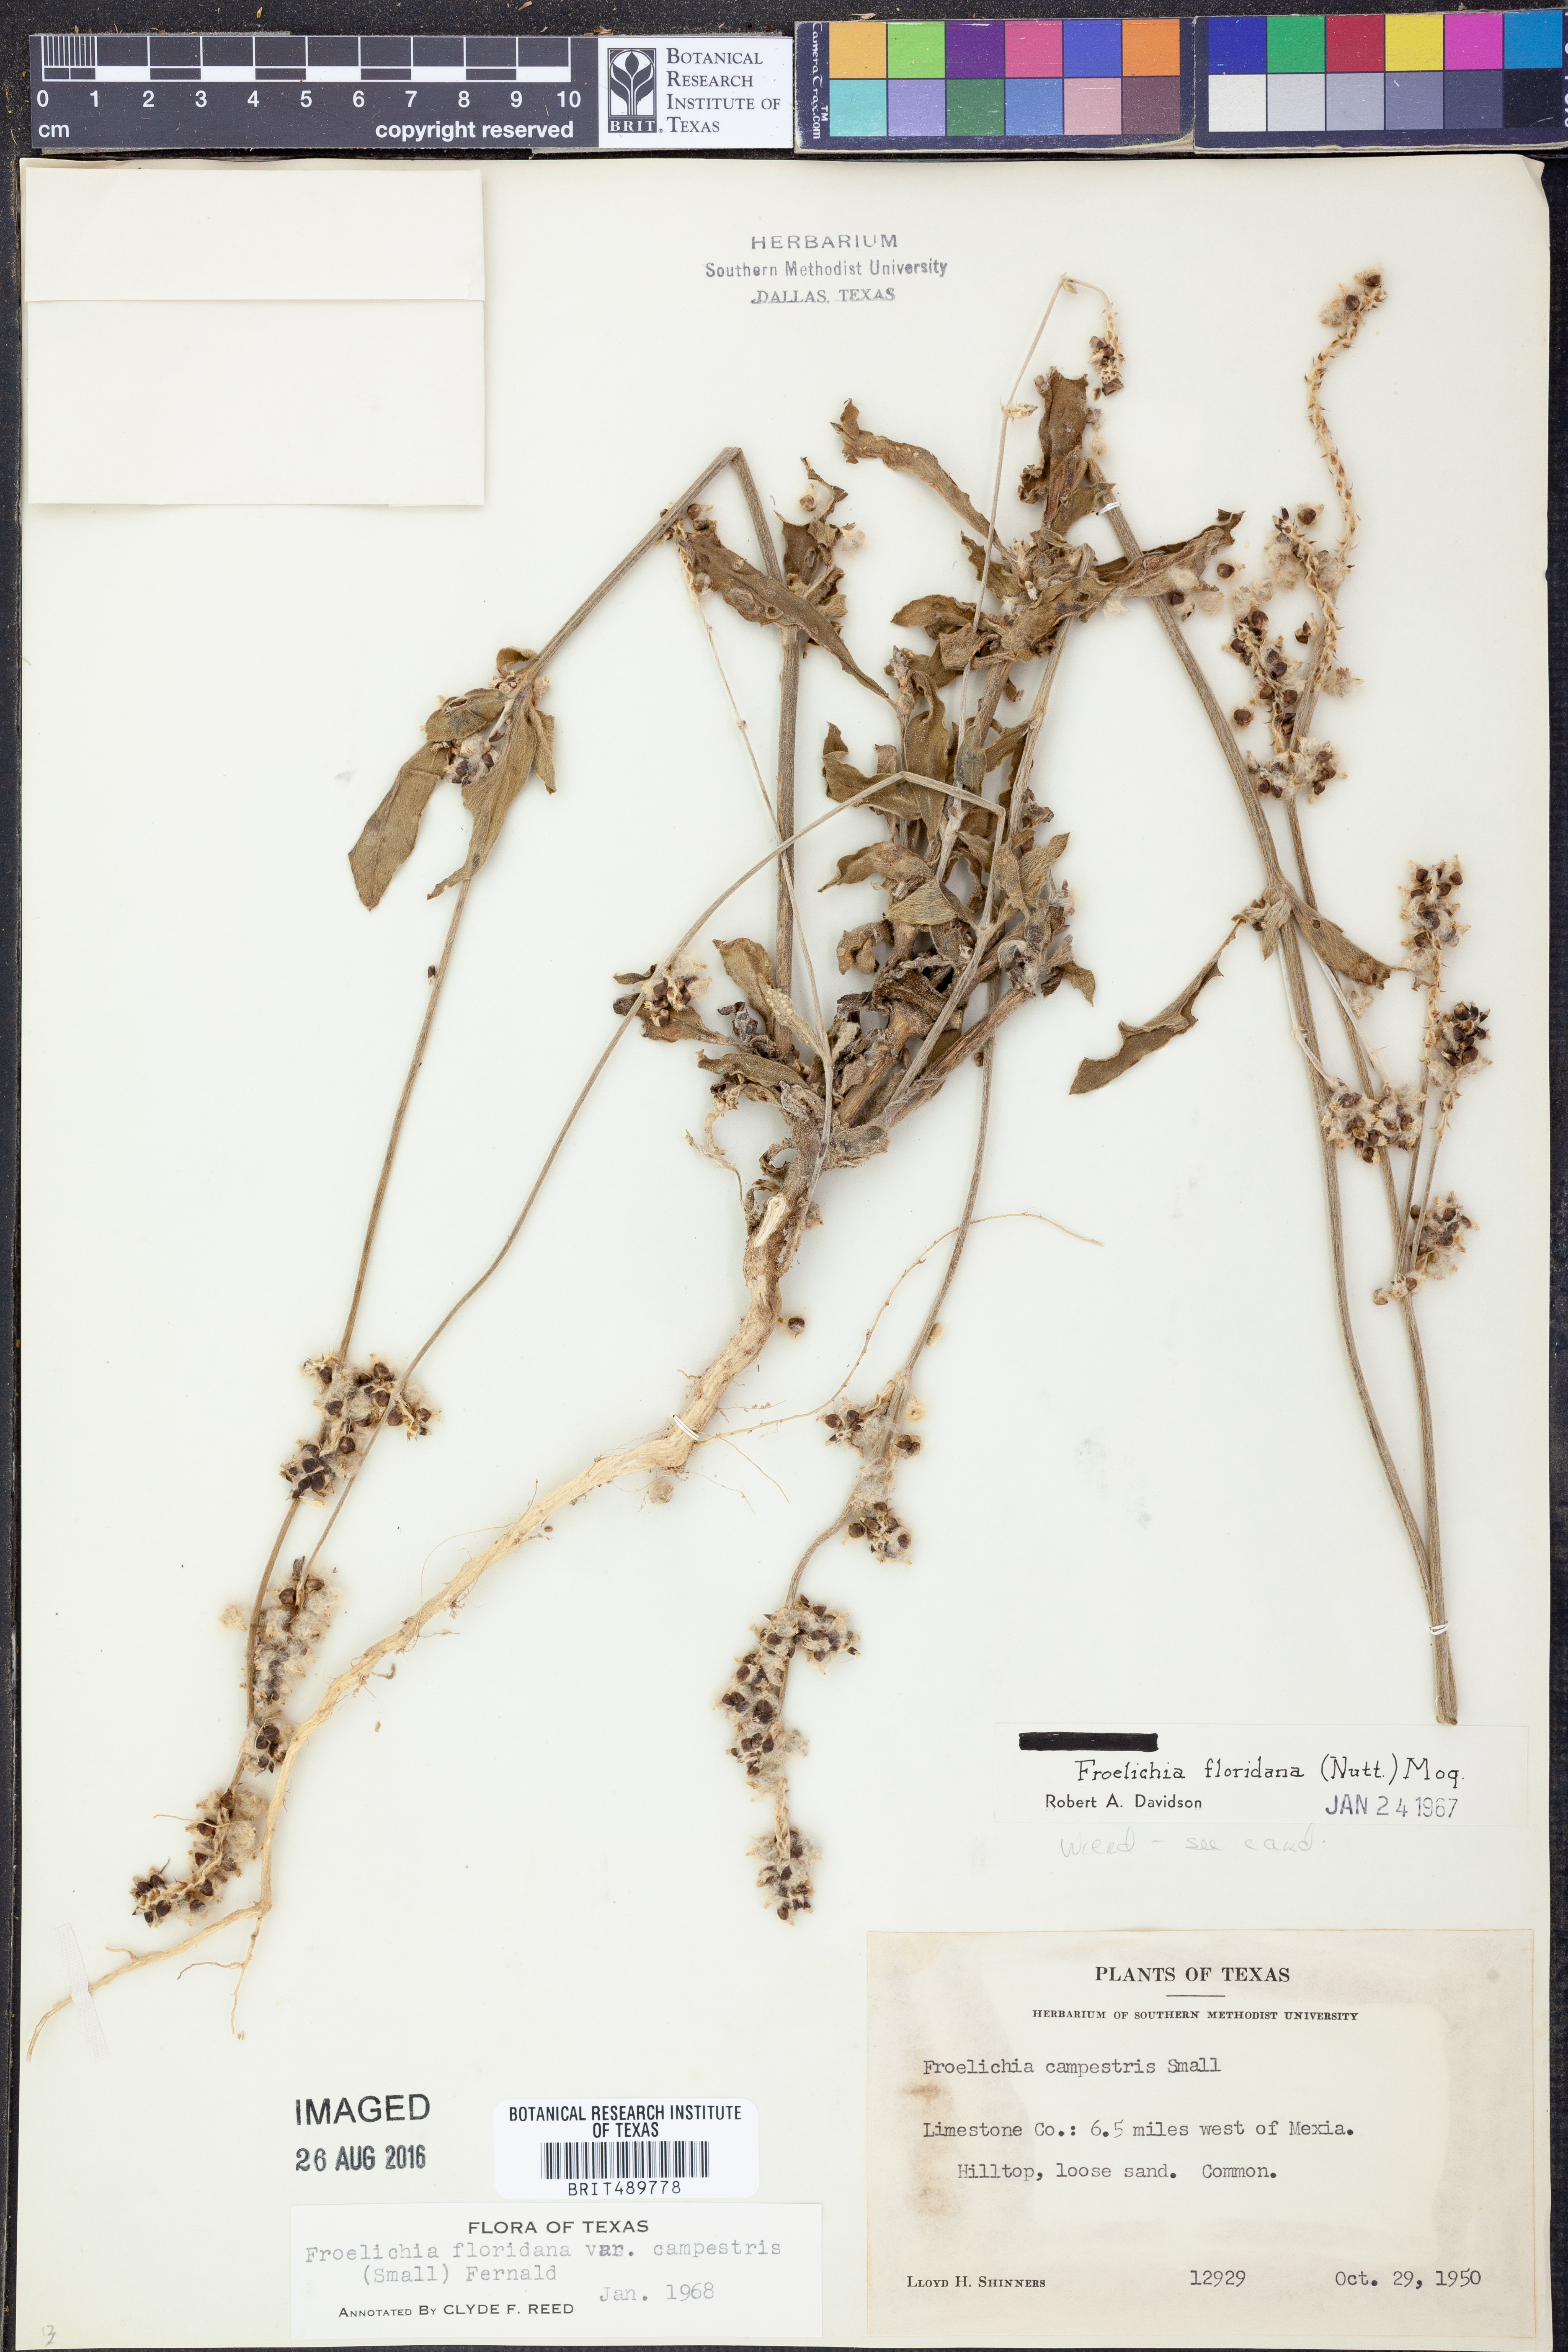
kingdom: Plantae
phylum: Tracheophyta
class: Magnoliopsida
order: Caryophyllales
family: Amaranthaceae
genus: Froelichia
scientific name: Froelichia floridana
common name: Florida snake-cotton
